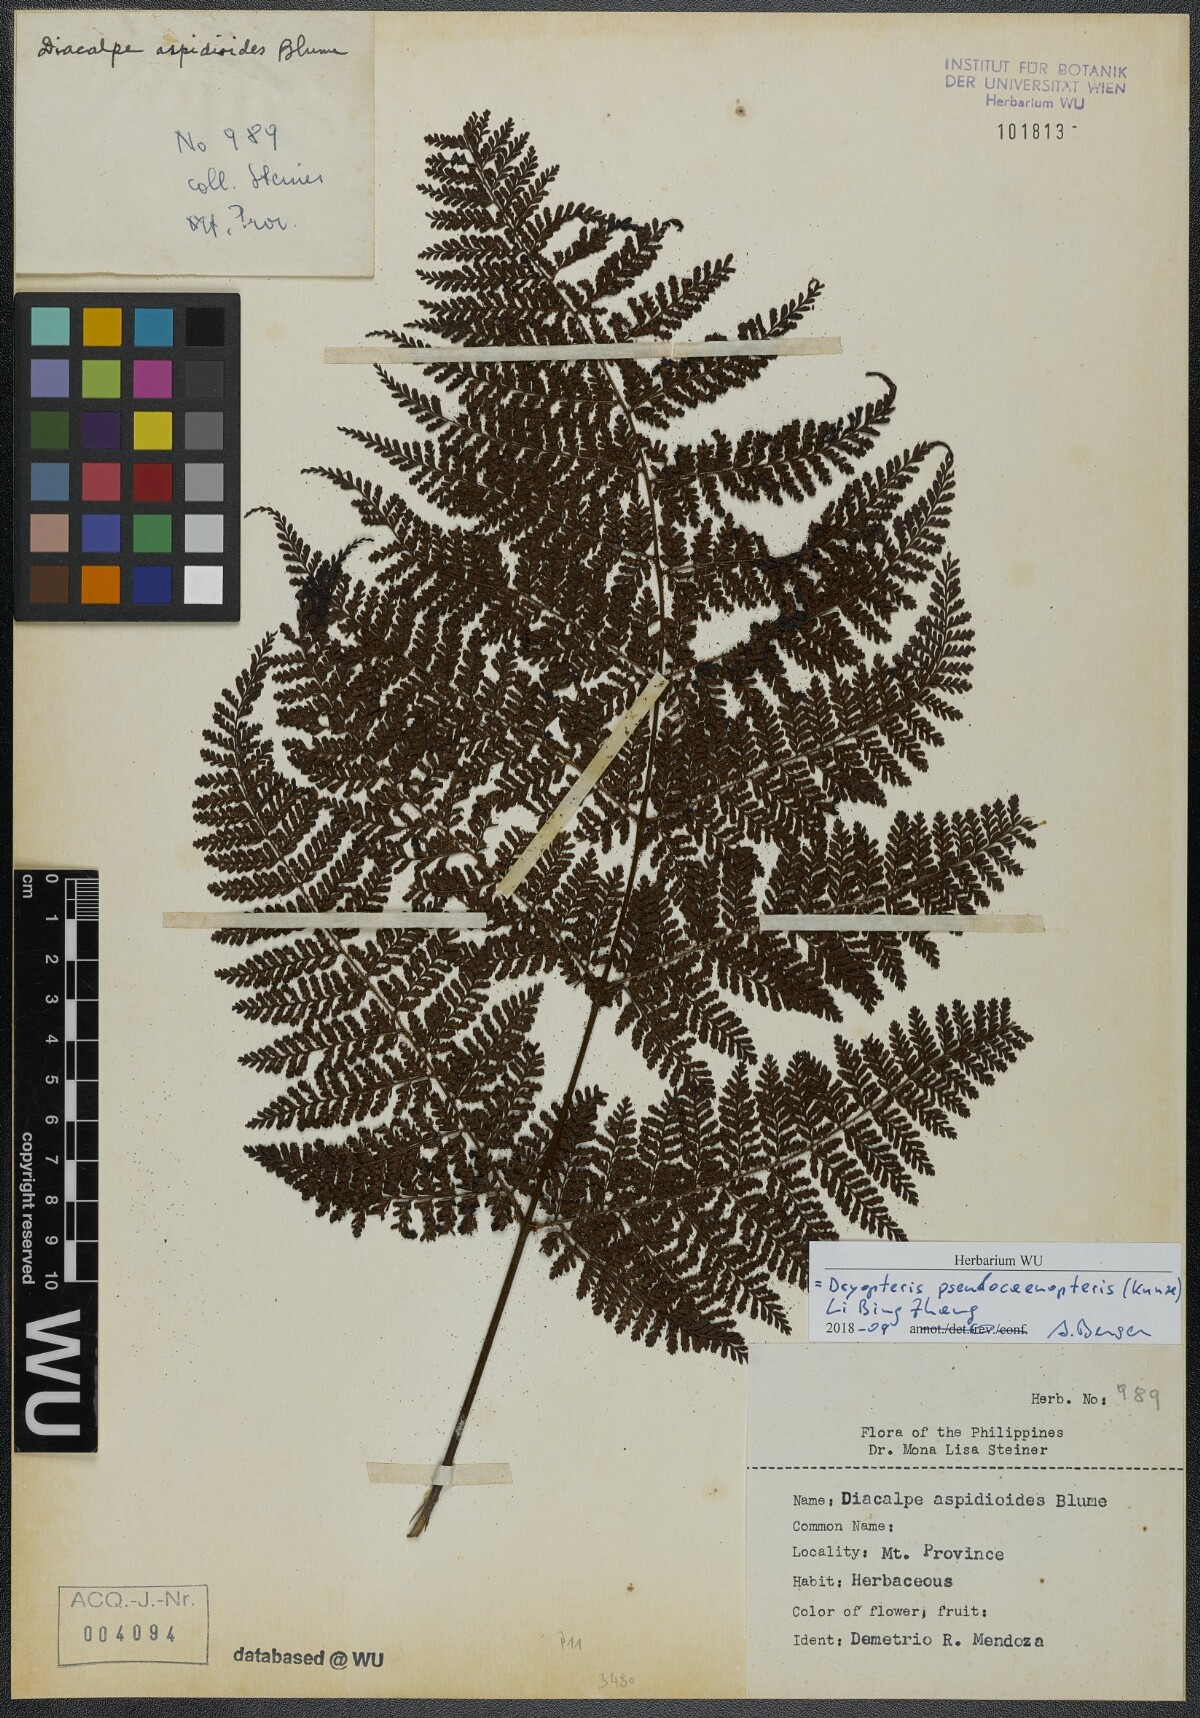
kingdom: Plantae
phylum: Tracheophyta
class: Polypodiopsida
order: Polypodiales
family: Dryopteridaceae
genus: Dryopteris
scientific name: Dryopteris pseudocaenopteris
